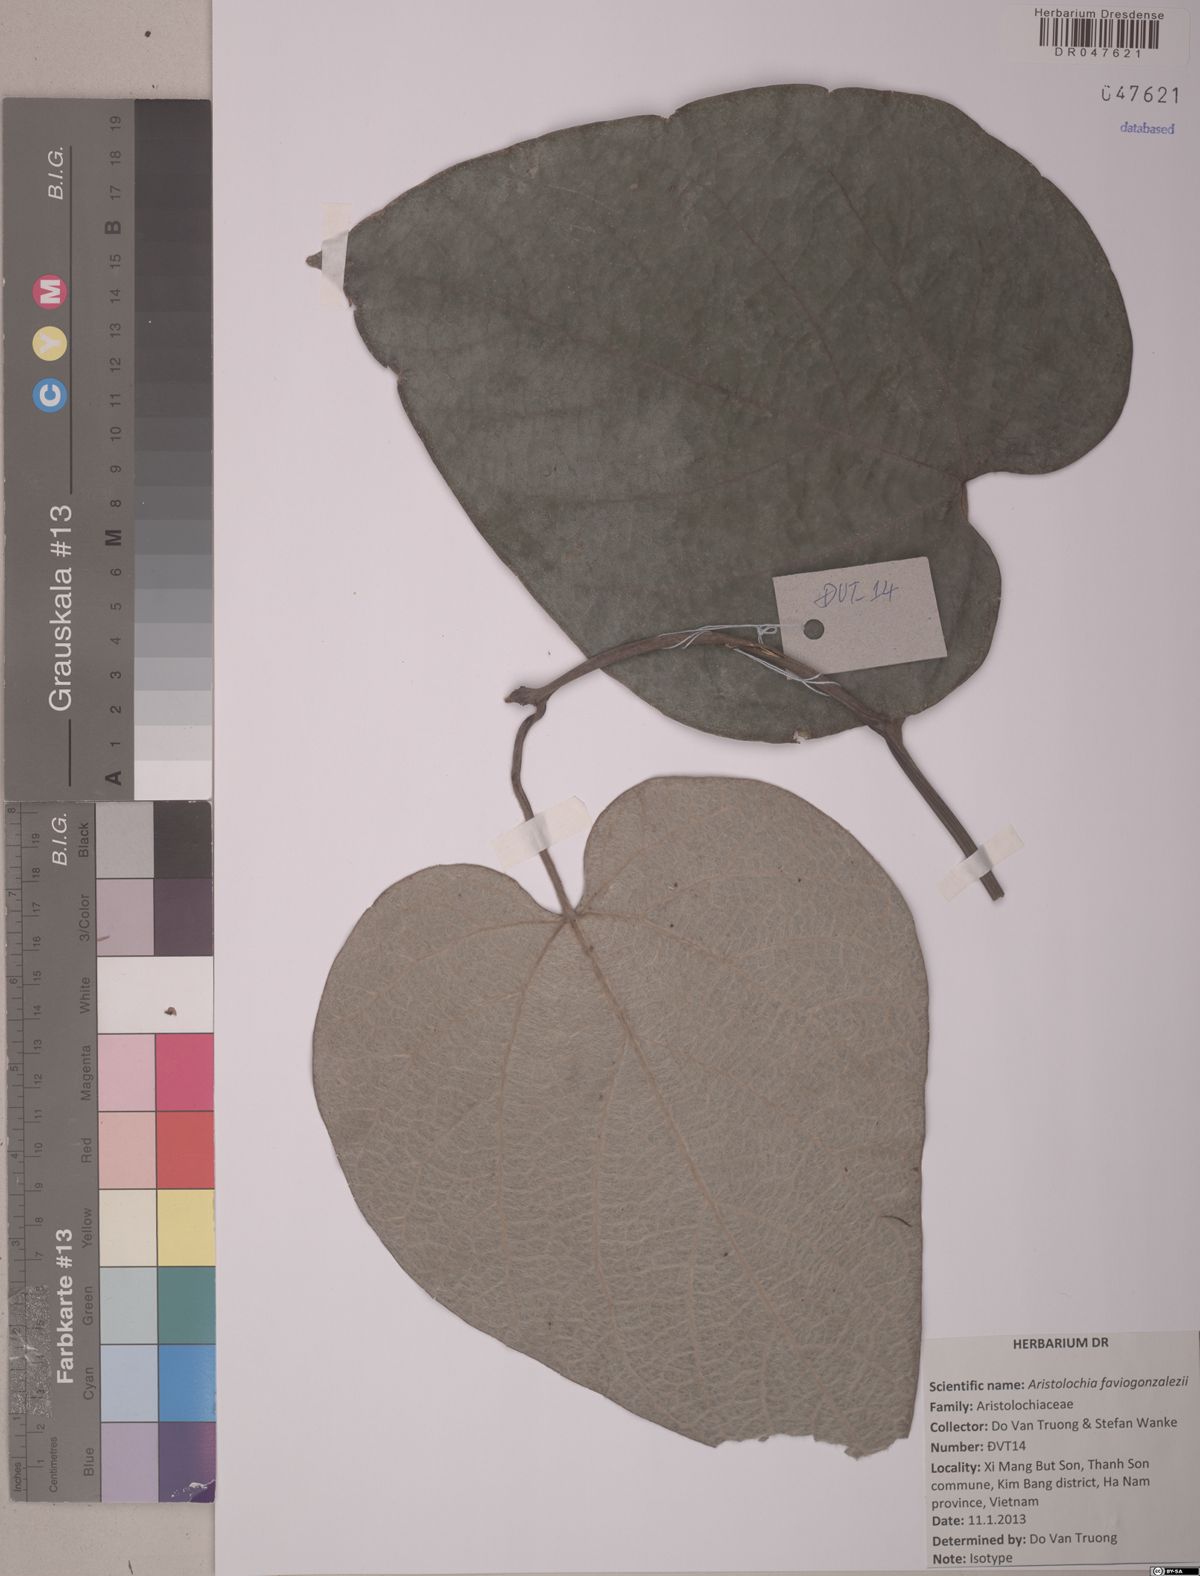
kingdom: Plantae
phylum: Tracheophyta
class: Magnoliopsida
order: Piperales
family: Aristolochiaceae
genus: Isotrema
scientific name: Isotrema faviogonzalezii
